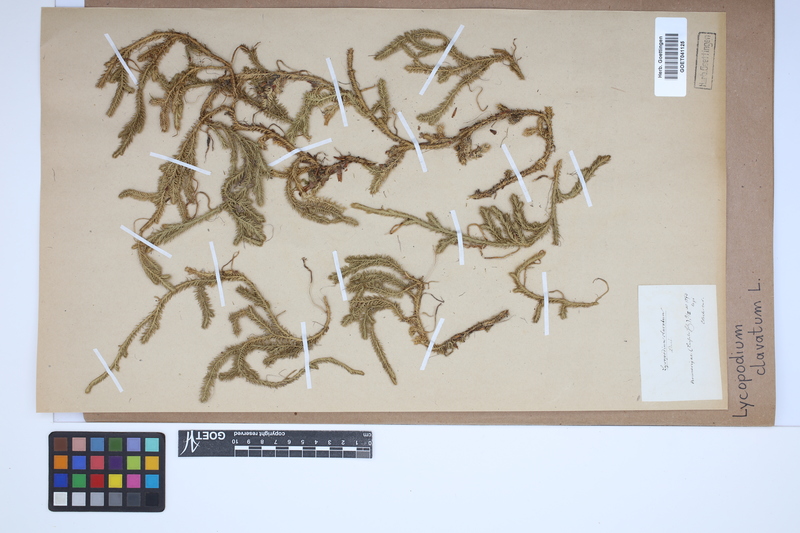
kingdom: Plantae
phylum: Tracheophyta
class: Lycopodiopsida
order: Lycopodiales
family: Lycopodiaceae
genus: Lycopodium
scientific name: Lycopodium clavatum
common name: Stag's-horn clubmoss
